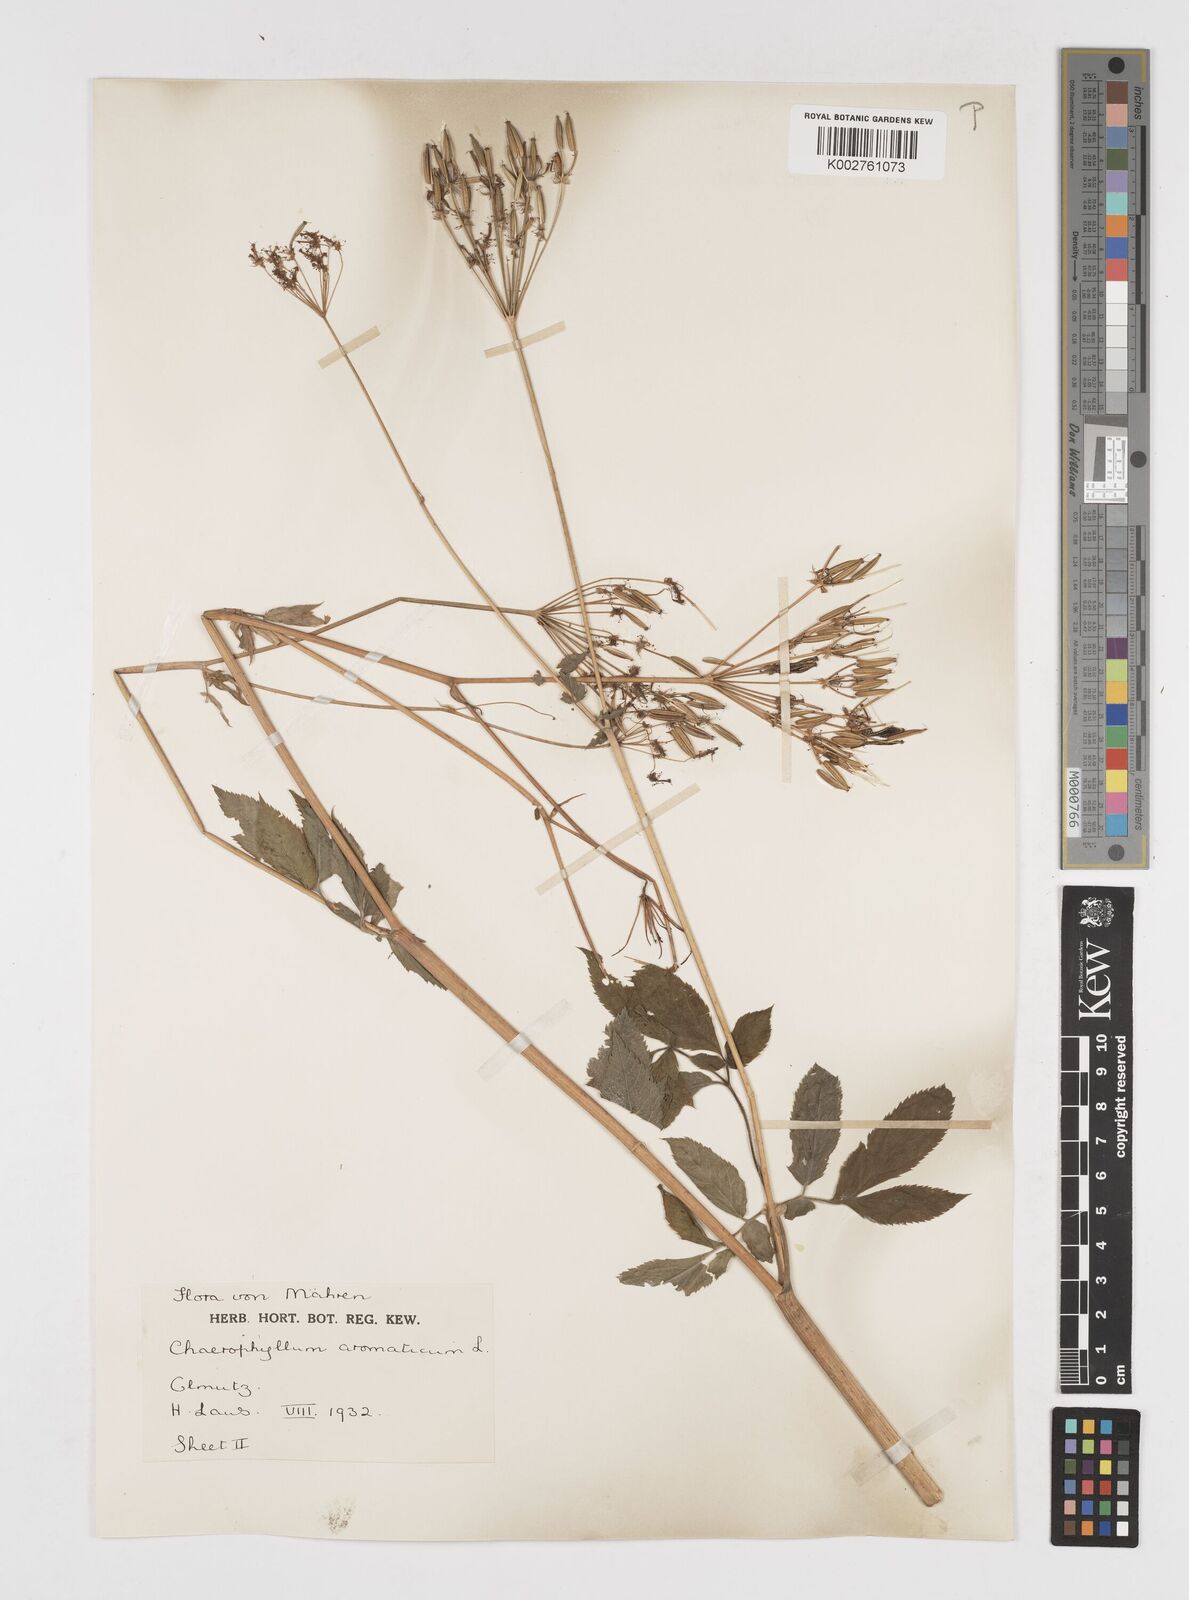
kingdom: Plantae
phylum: Tracheophyta
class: Magnoliopsida
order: Apiales
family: Apiaceae
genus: Chaerophyllum
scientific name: Chaerophyllum aromaticum
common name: Broadleaf chervil
